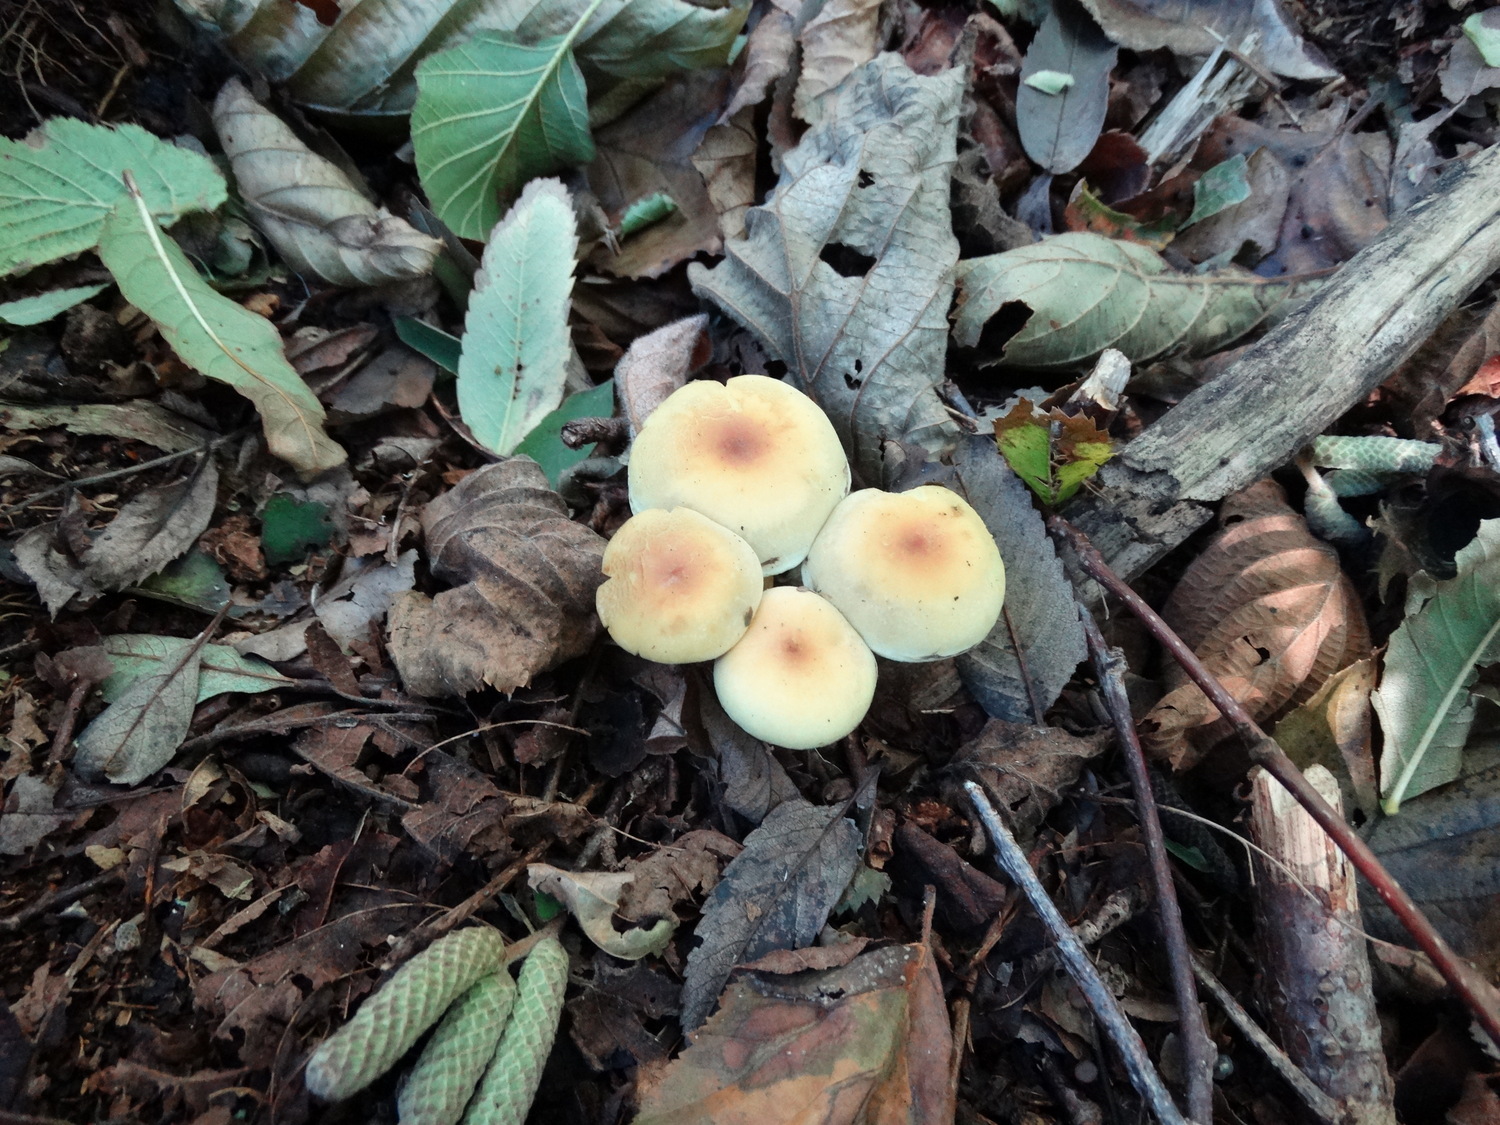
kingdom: Fungi
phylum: Basidiomycota
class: Agaricomycetes
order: Agaricales
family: Strophariaceae
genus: Hypholoma
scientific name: Hypholoma fasciculare
